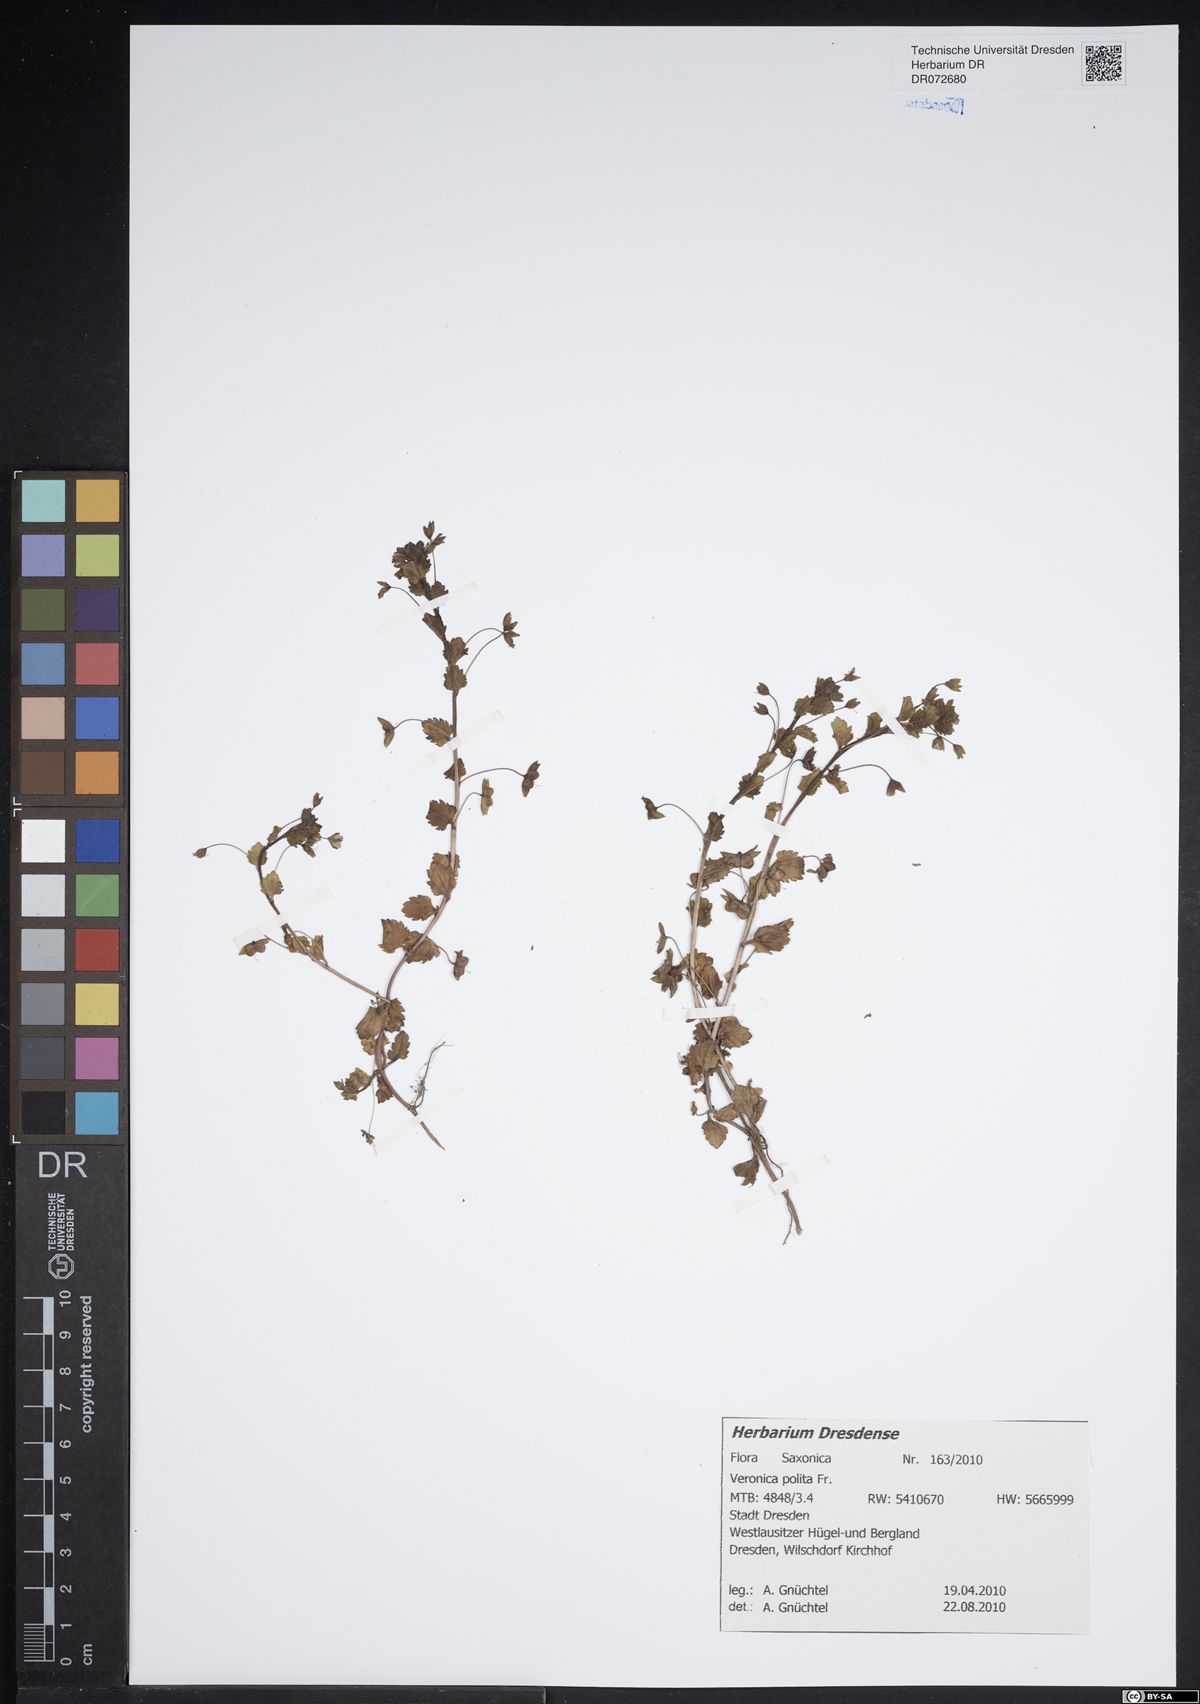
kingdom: Plantae
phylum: Tracheophyta
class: Magnoliopsida
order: Lamiales
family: Plantaginaceae
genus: Veronica
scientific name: Veronica polita
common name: Grey field-speedwell
